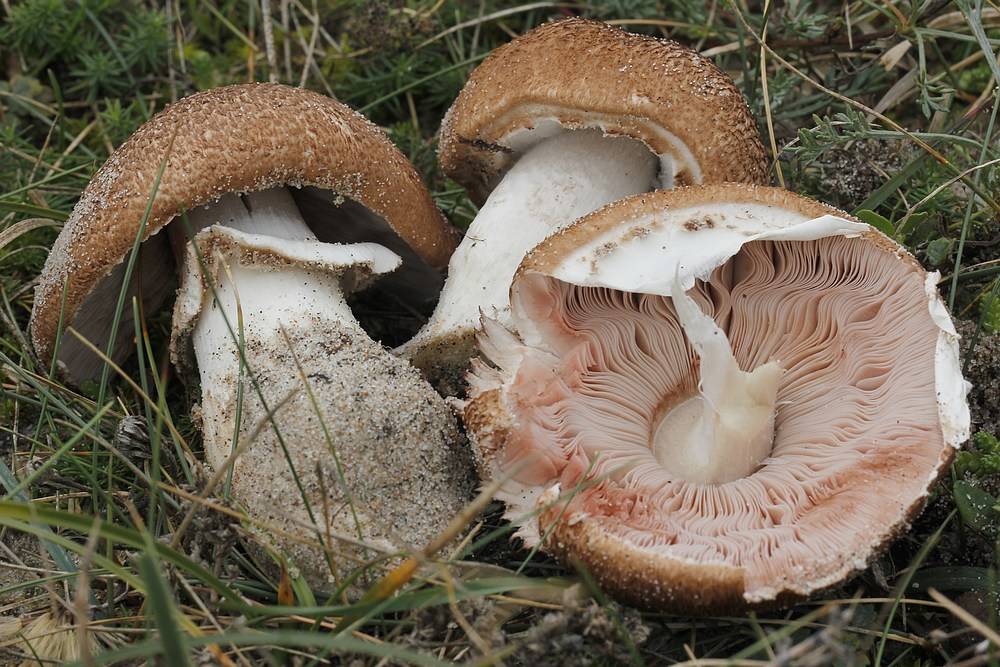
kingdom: Fungi
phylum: Basidiomycota
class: Agaricomycetes
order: Agaricales
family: Agaricaceae
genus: Agaricus
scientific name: Agaricus augustus
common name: prægtig champignon
